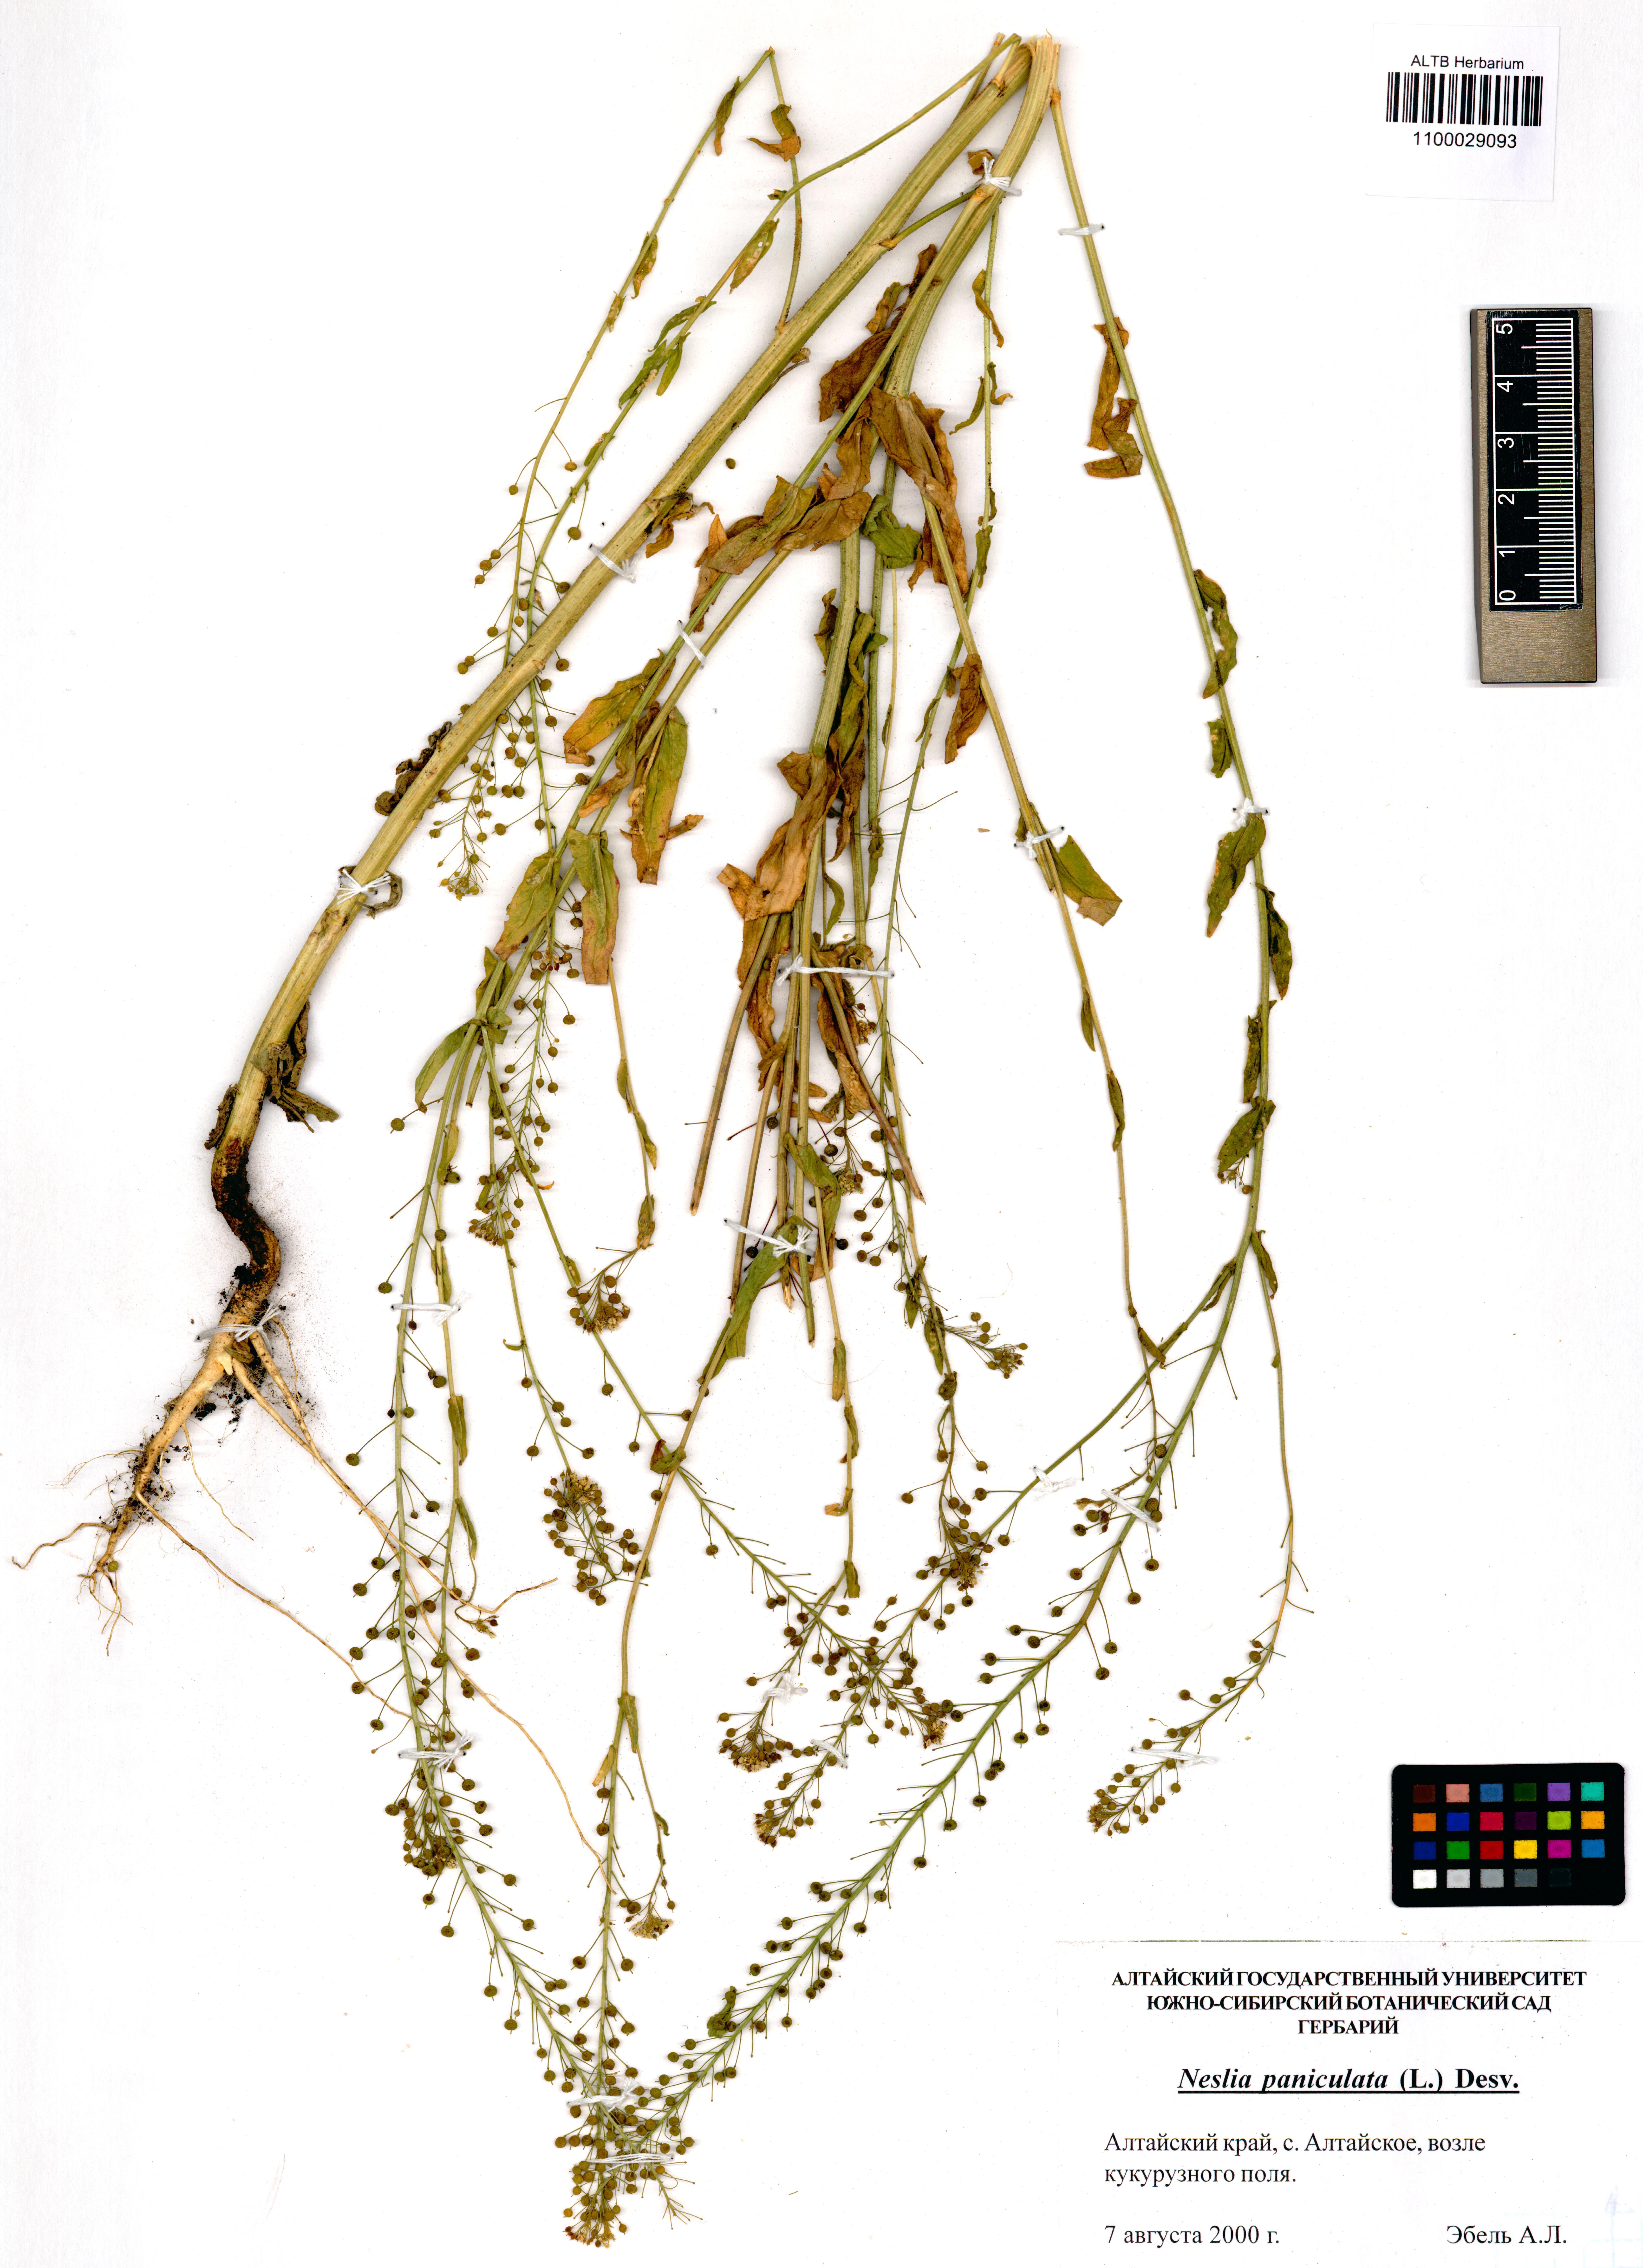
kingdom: Plantae
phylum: Tracheophyta
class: Magnoliopsida
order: Brassicales
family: Brassicaceae
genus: Neslia
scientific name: Neslia paniculata
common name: Ball mustard
